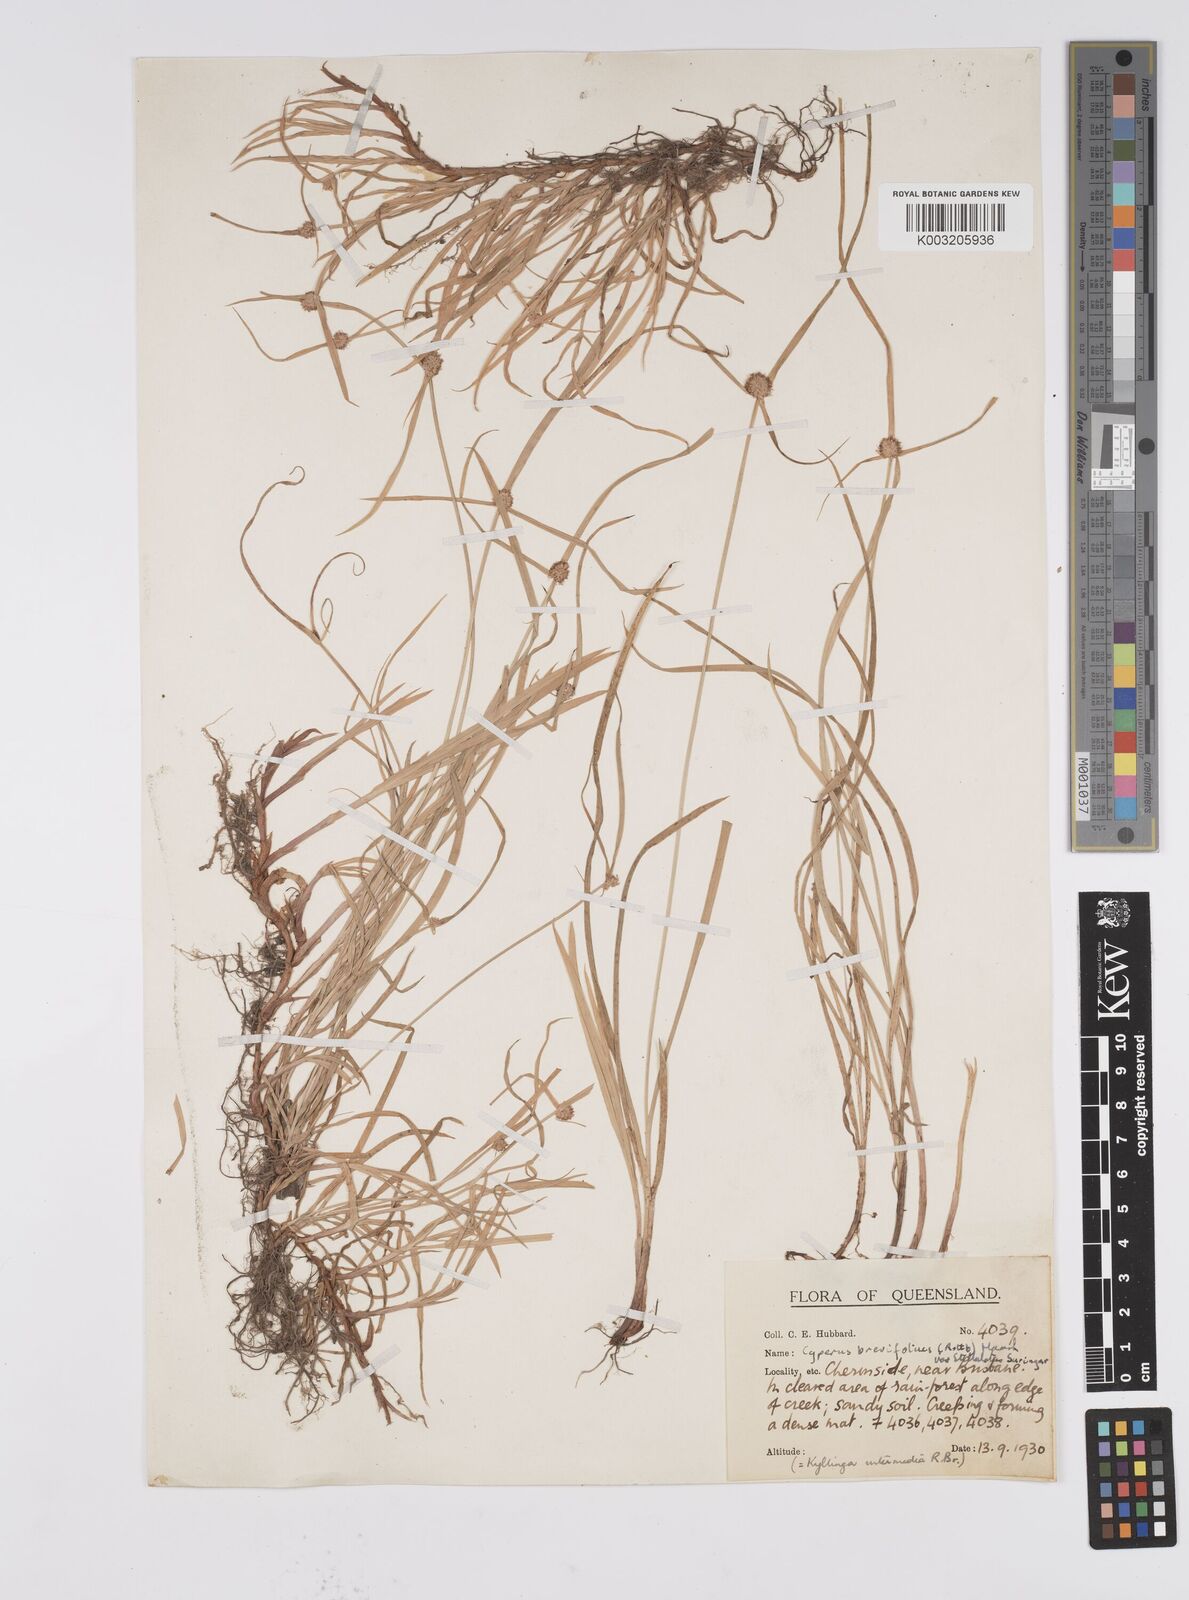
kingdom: Plantae
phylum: Tracheophyta
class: Liliopsida
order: Poales
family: Cyperaceae
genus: Cyperus
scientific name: Cyperus brevifolius
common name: Globe kyllinga
